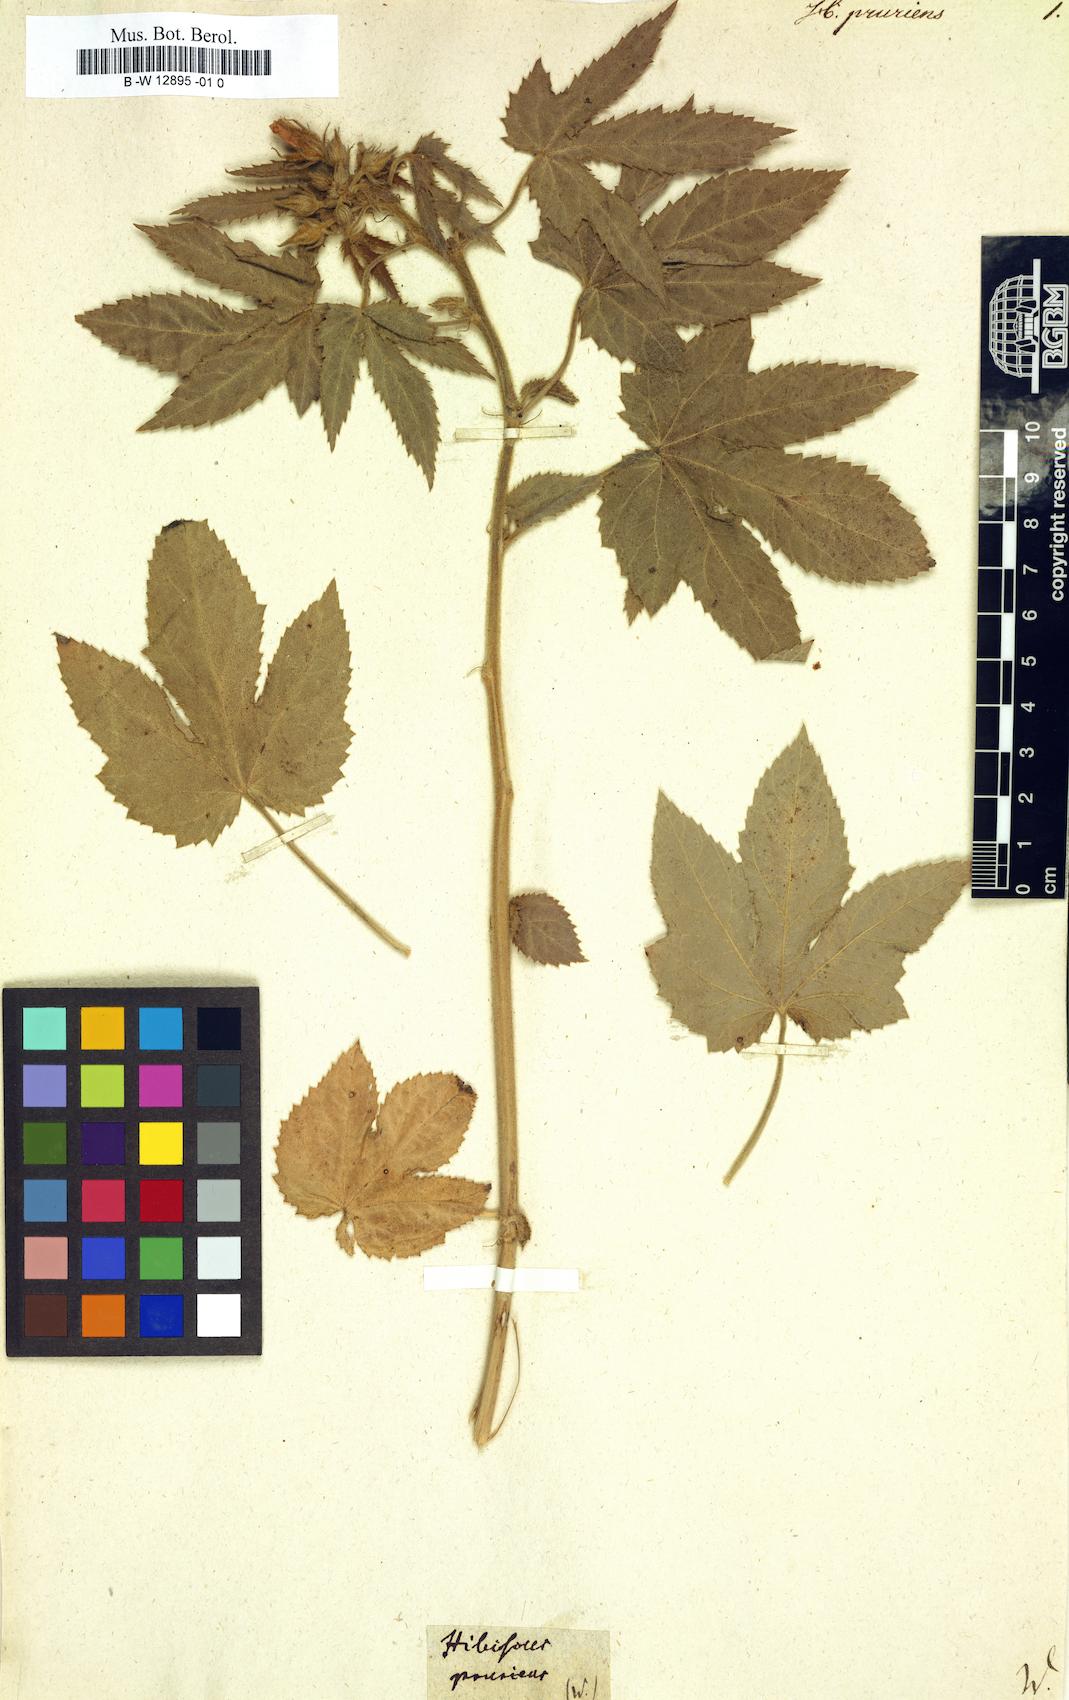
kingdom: Plantae
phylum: Tracheophyta
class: Magnoliopsida
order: Malvales
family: Malvaceae
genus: Hibiscus
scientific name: Hibiscus pruriens
